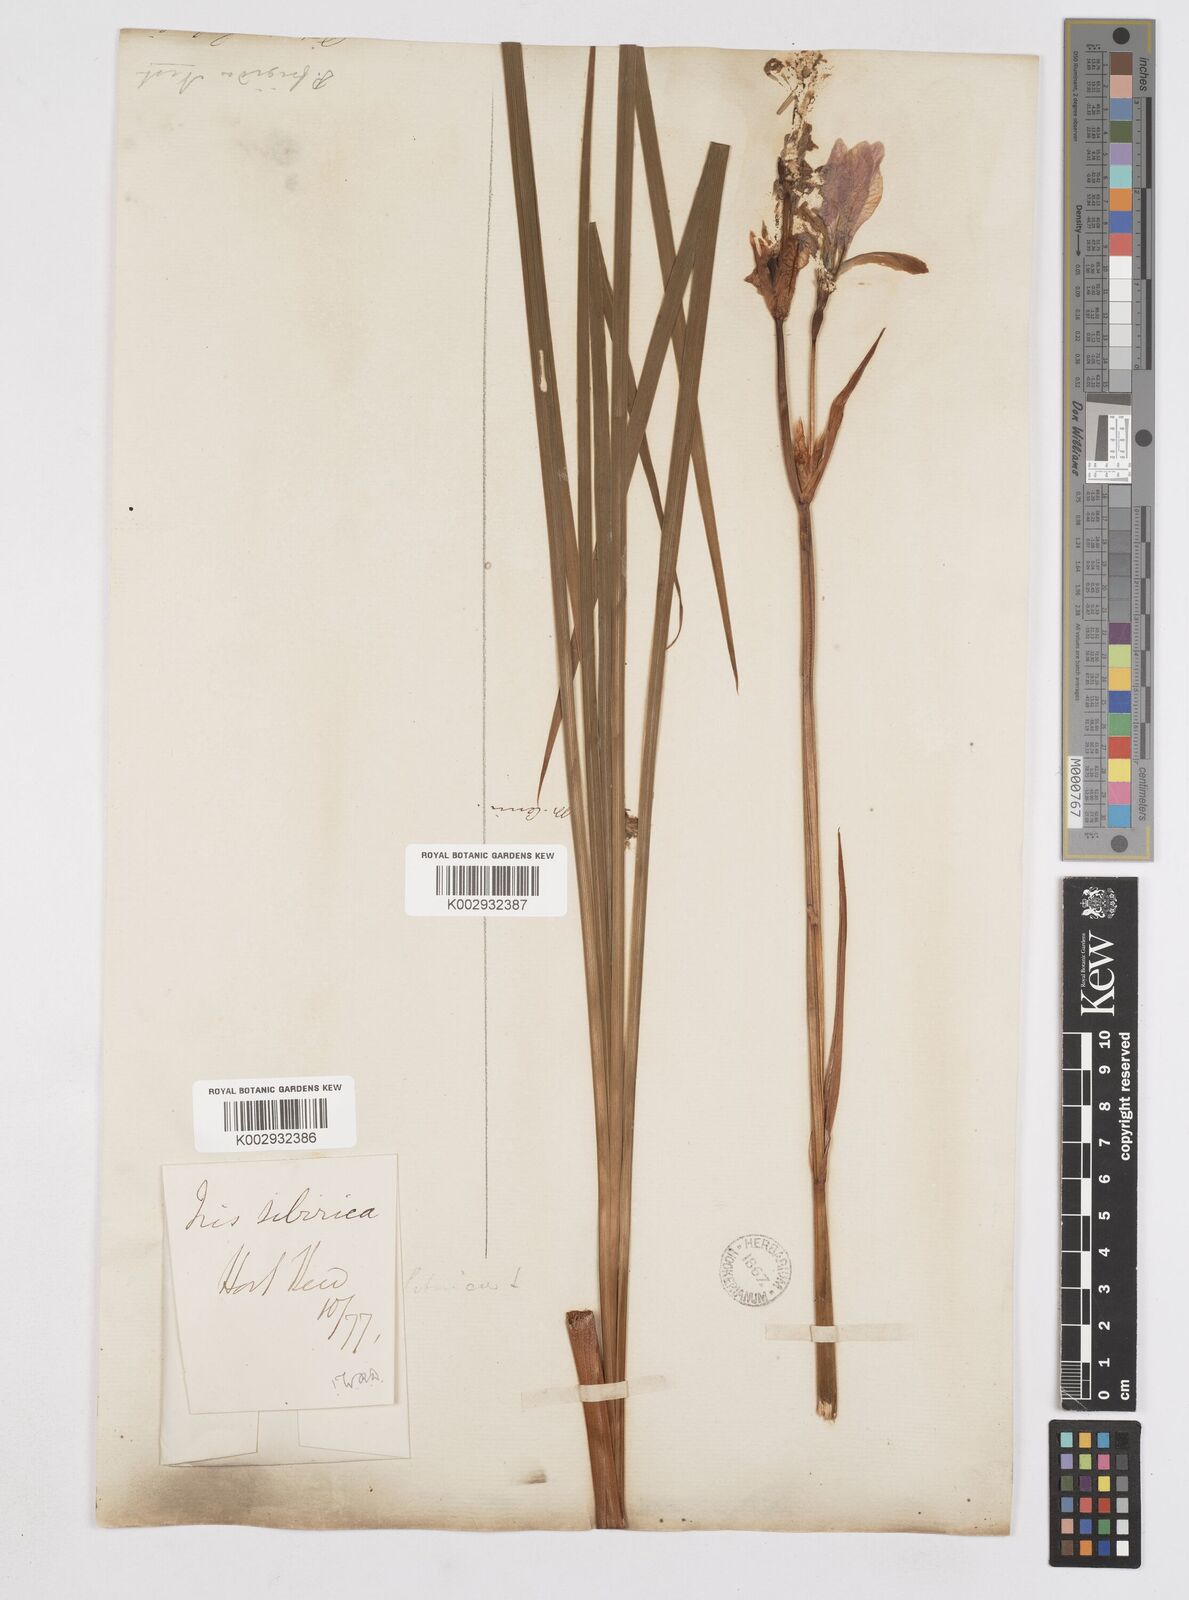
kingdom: Plantae
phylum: Tracheophyta
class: Liliopsida
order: Asparagales
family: Iridaceae
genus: Iris
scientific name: Iris sibirica
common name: Siberian iris
